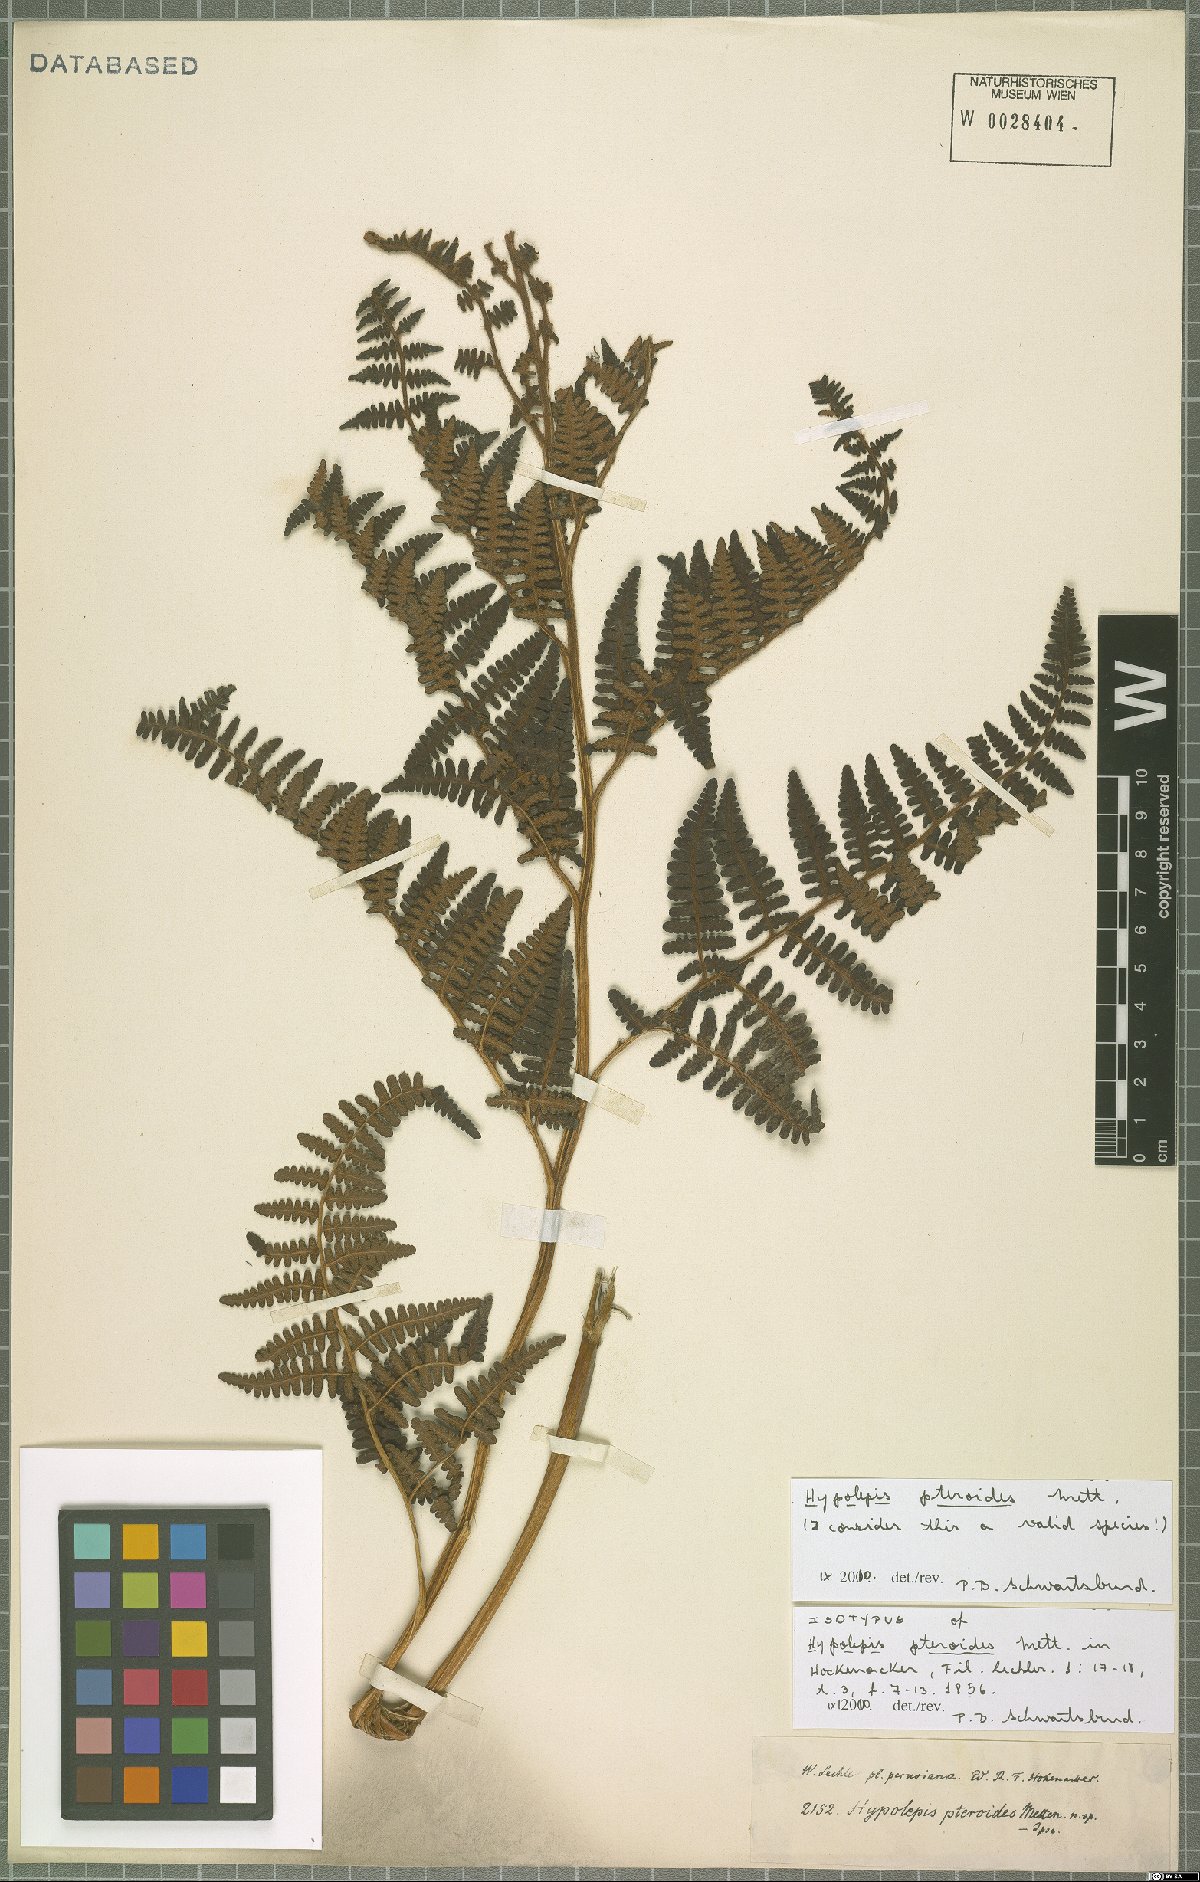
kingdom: Plantae
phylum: Tracheophyta
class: Polypodiopsida
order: Polypodiales
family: Dennstaedtiaceae
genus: Hypolepis
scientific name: Hypolepis pteroides
